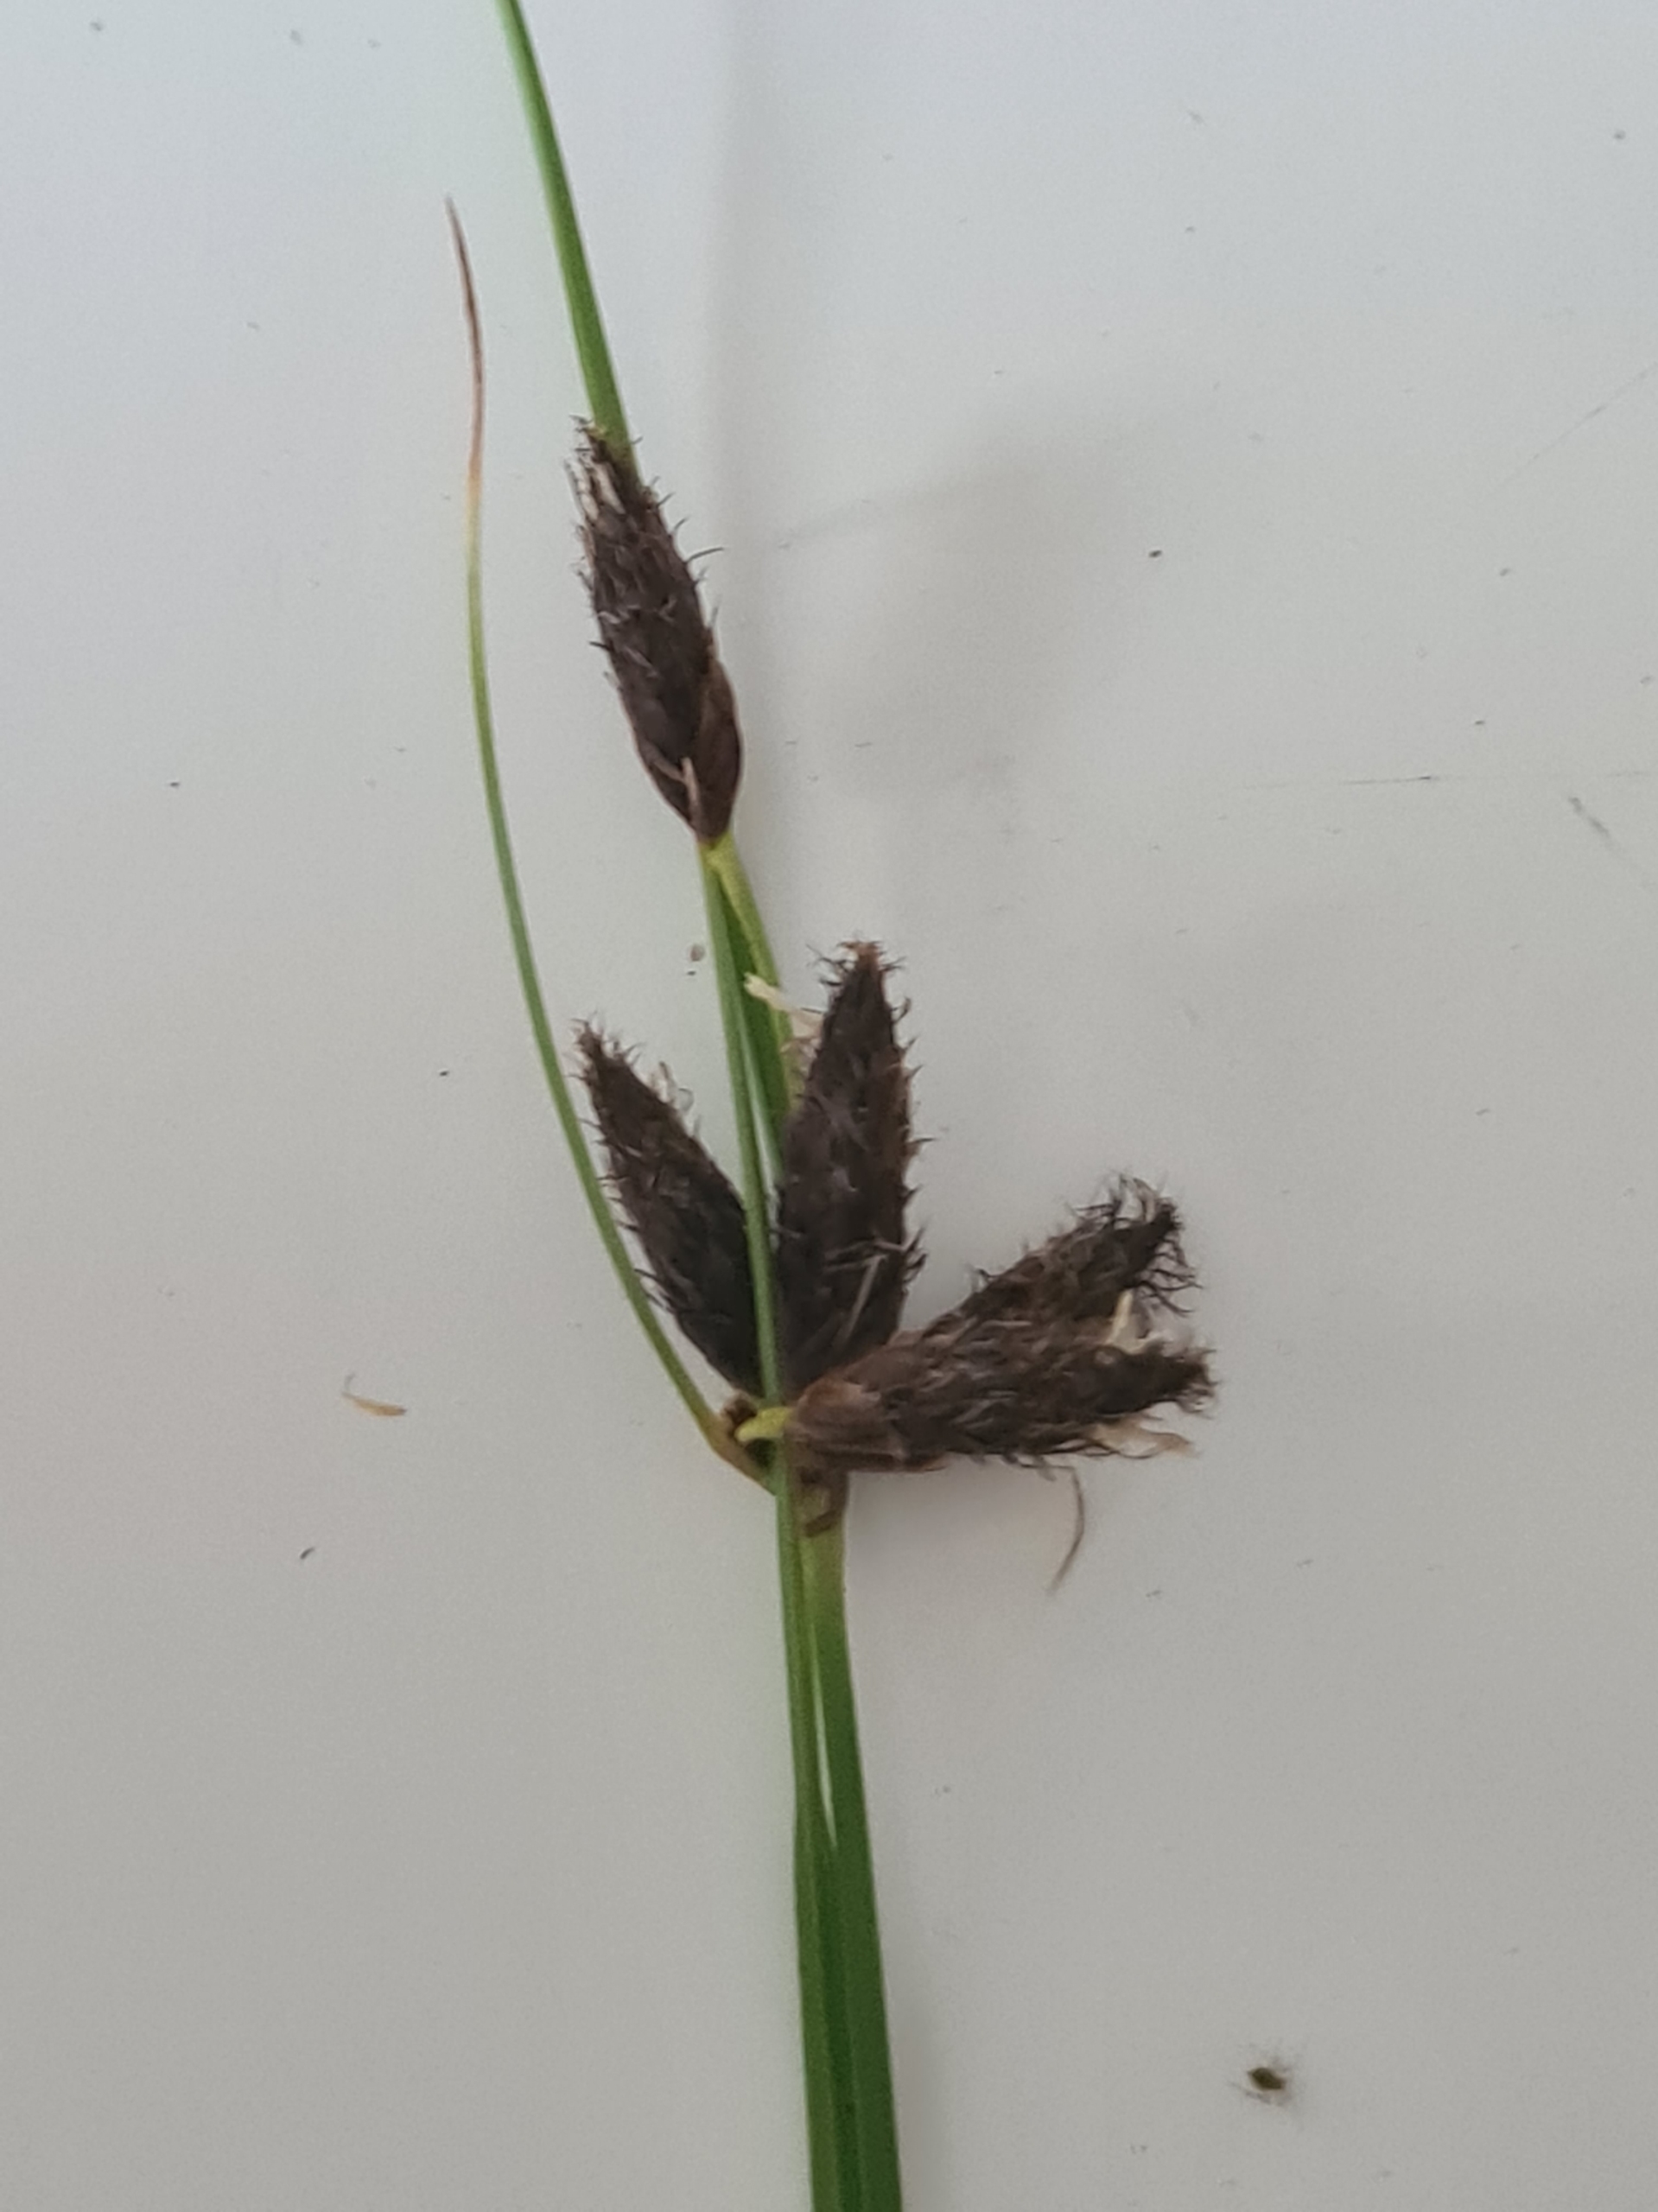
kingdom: Plantae
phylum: Tracheophyta
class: Liliopsida
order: Poales
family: Cyperaceae
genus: Bolboschoenus
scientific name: Bolboschoenus maritimus
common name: Strand-kogleaks
